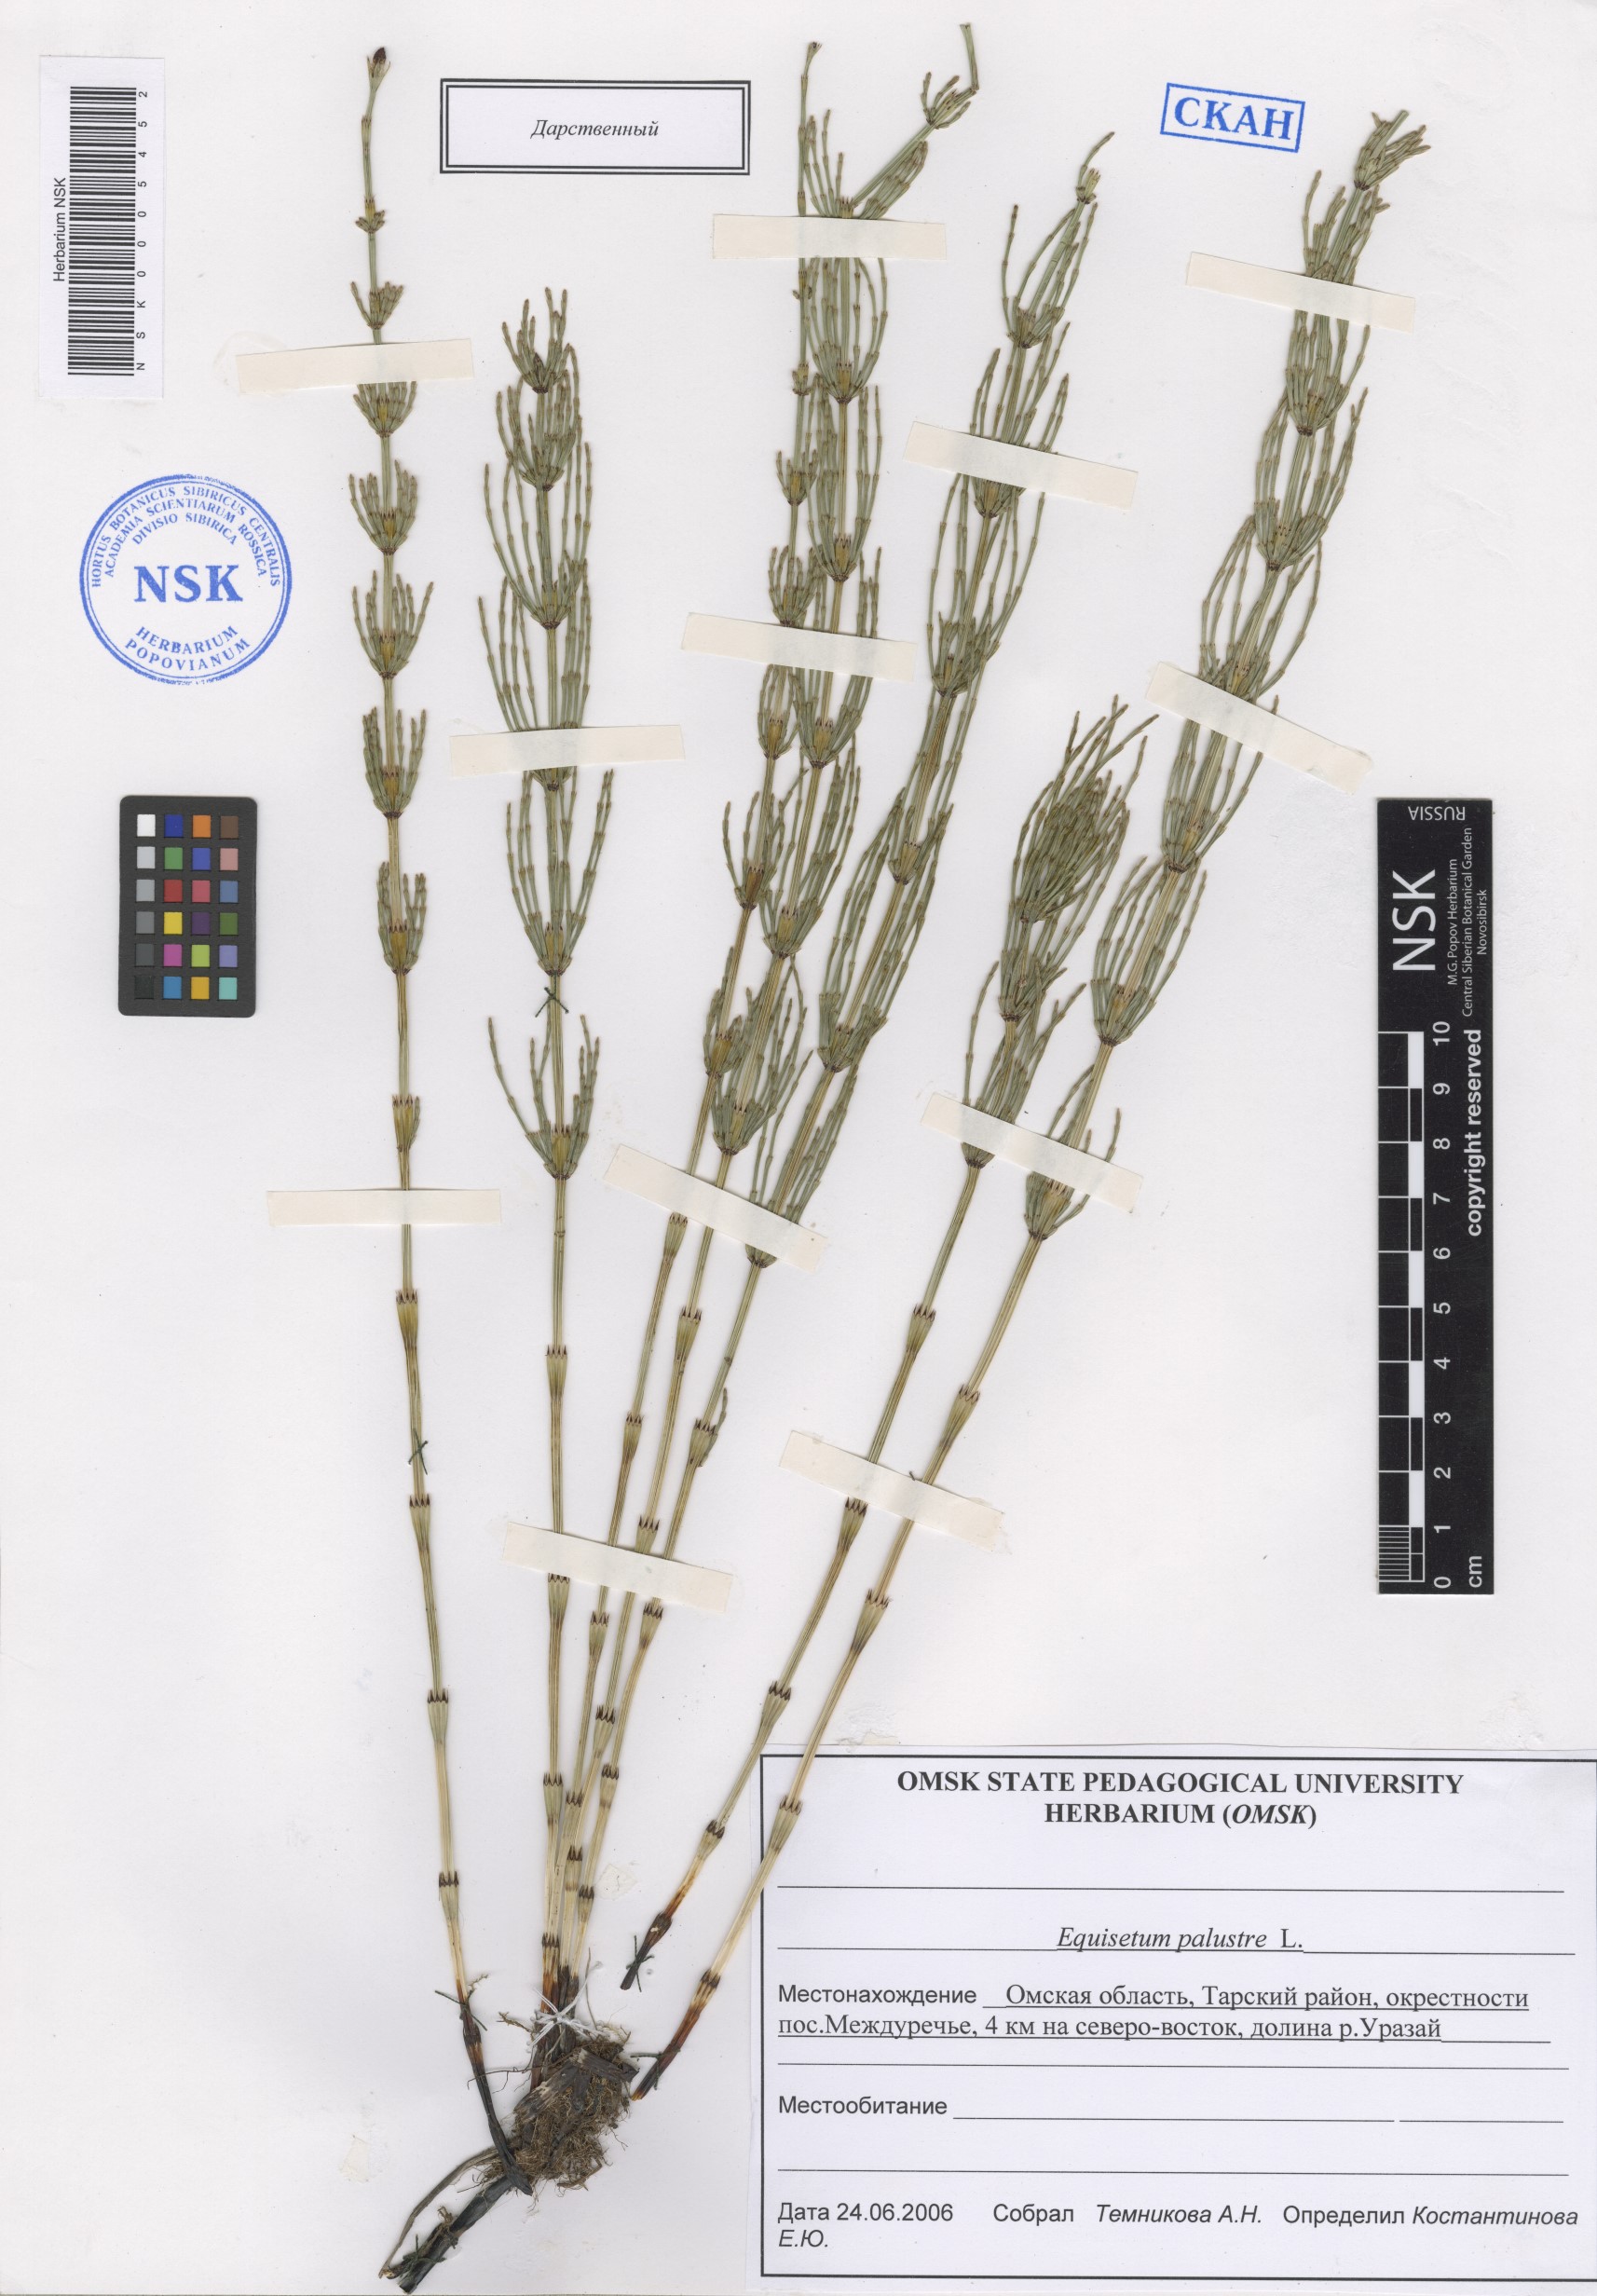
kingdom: Plantae
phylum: Tracheophyta
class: Polypodiopsida
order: Equisetales
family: Equisetaceae
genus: Equisetum
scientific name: Equisetum palustre
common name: Marsh horsetail
